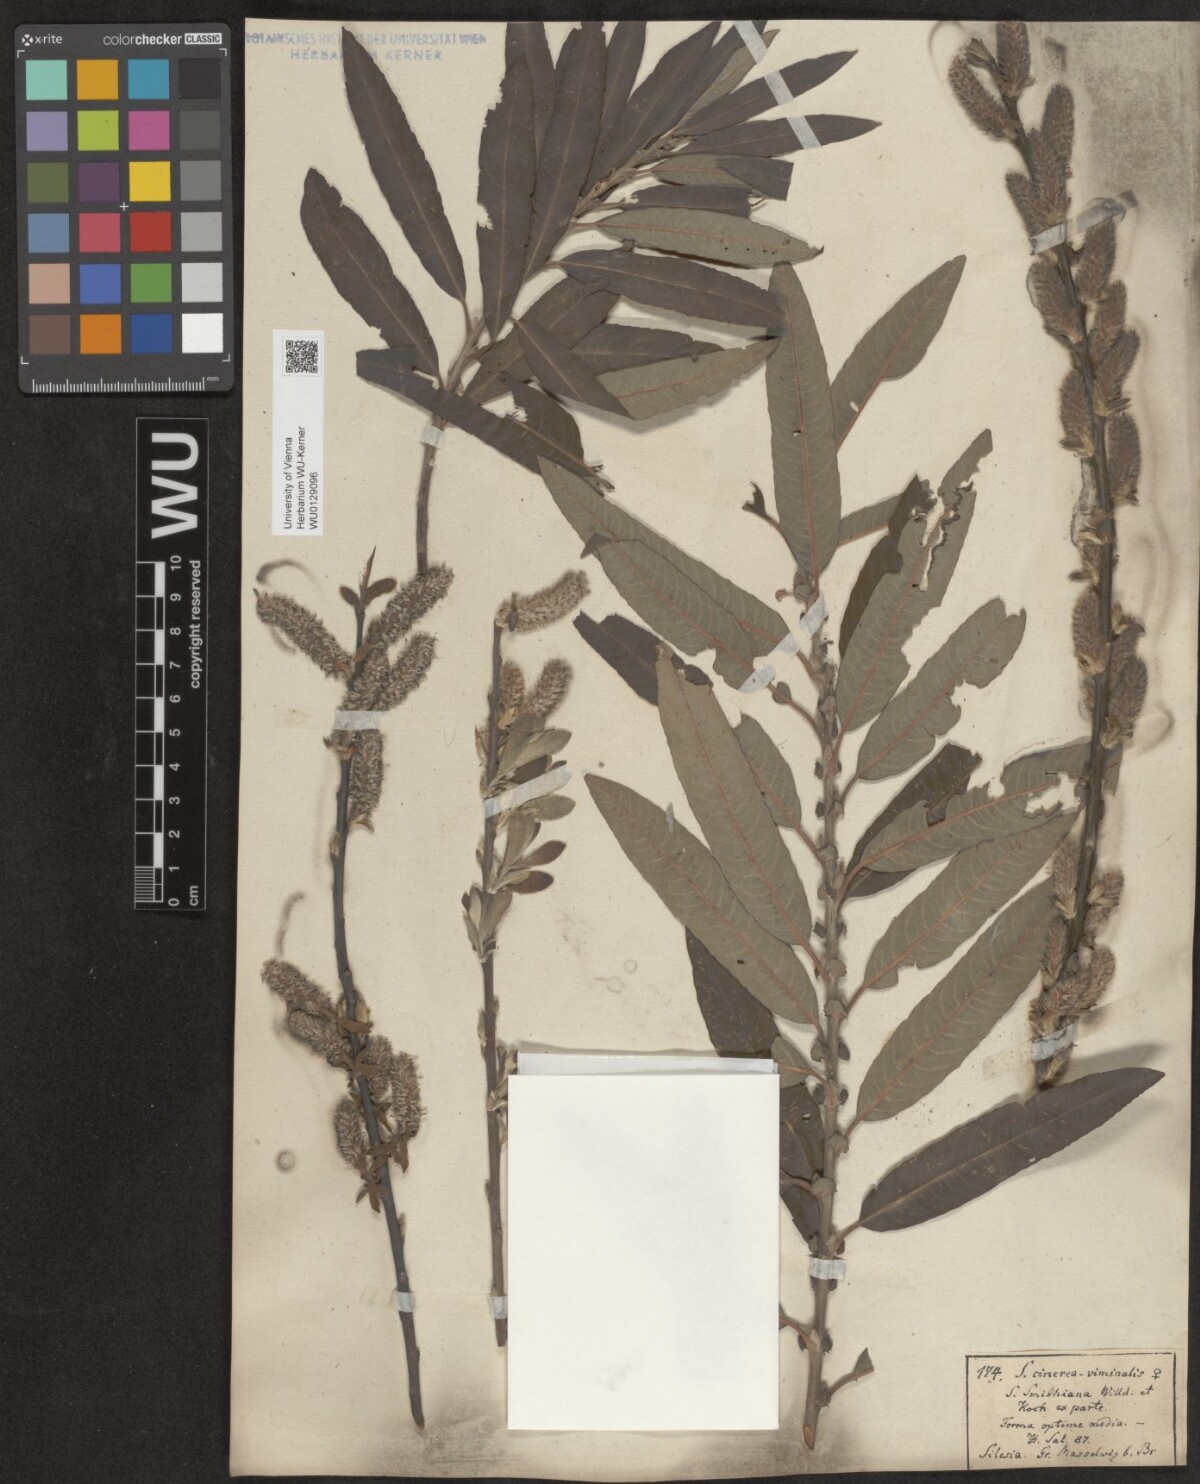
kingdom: Plantae
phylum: Tracheophyta
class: Magnoliopsida
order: Malpighiales
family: Salicaceae
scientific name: Salicaceae
